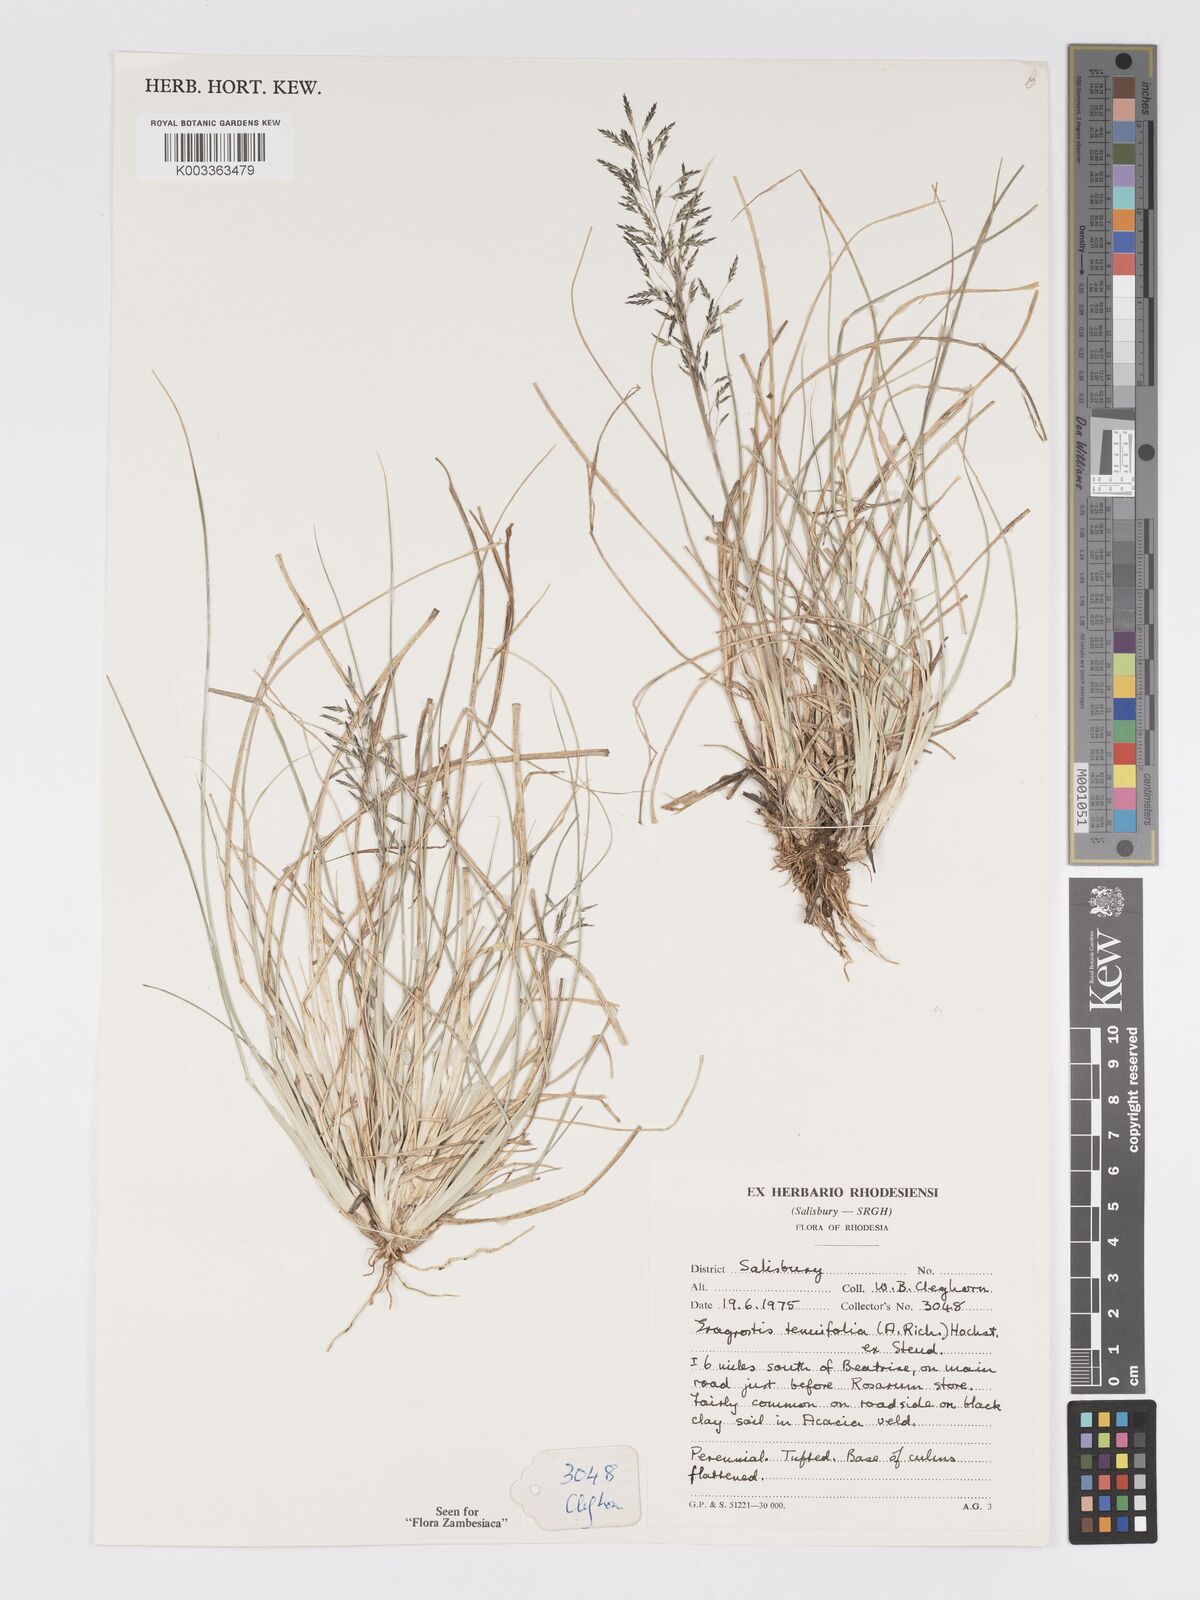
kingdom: Plantae
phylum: Tracheophyta
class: Liliopsida
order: Poales
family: Poaceae
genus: Eragrostis
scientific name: Eragrostis tenuifolia
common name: Elastic grass
